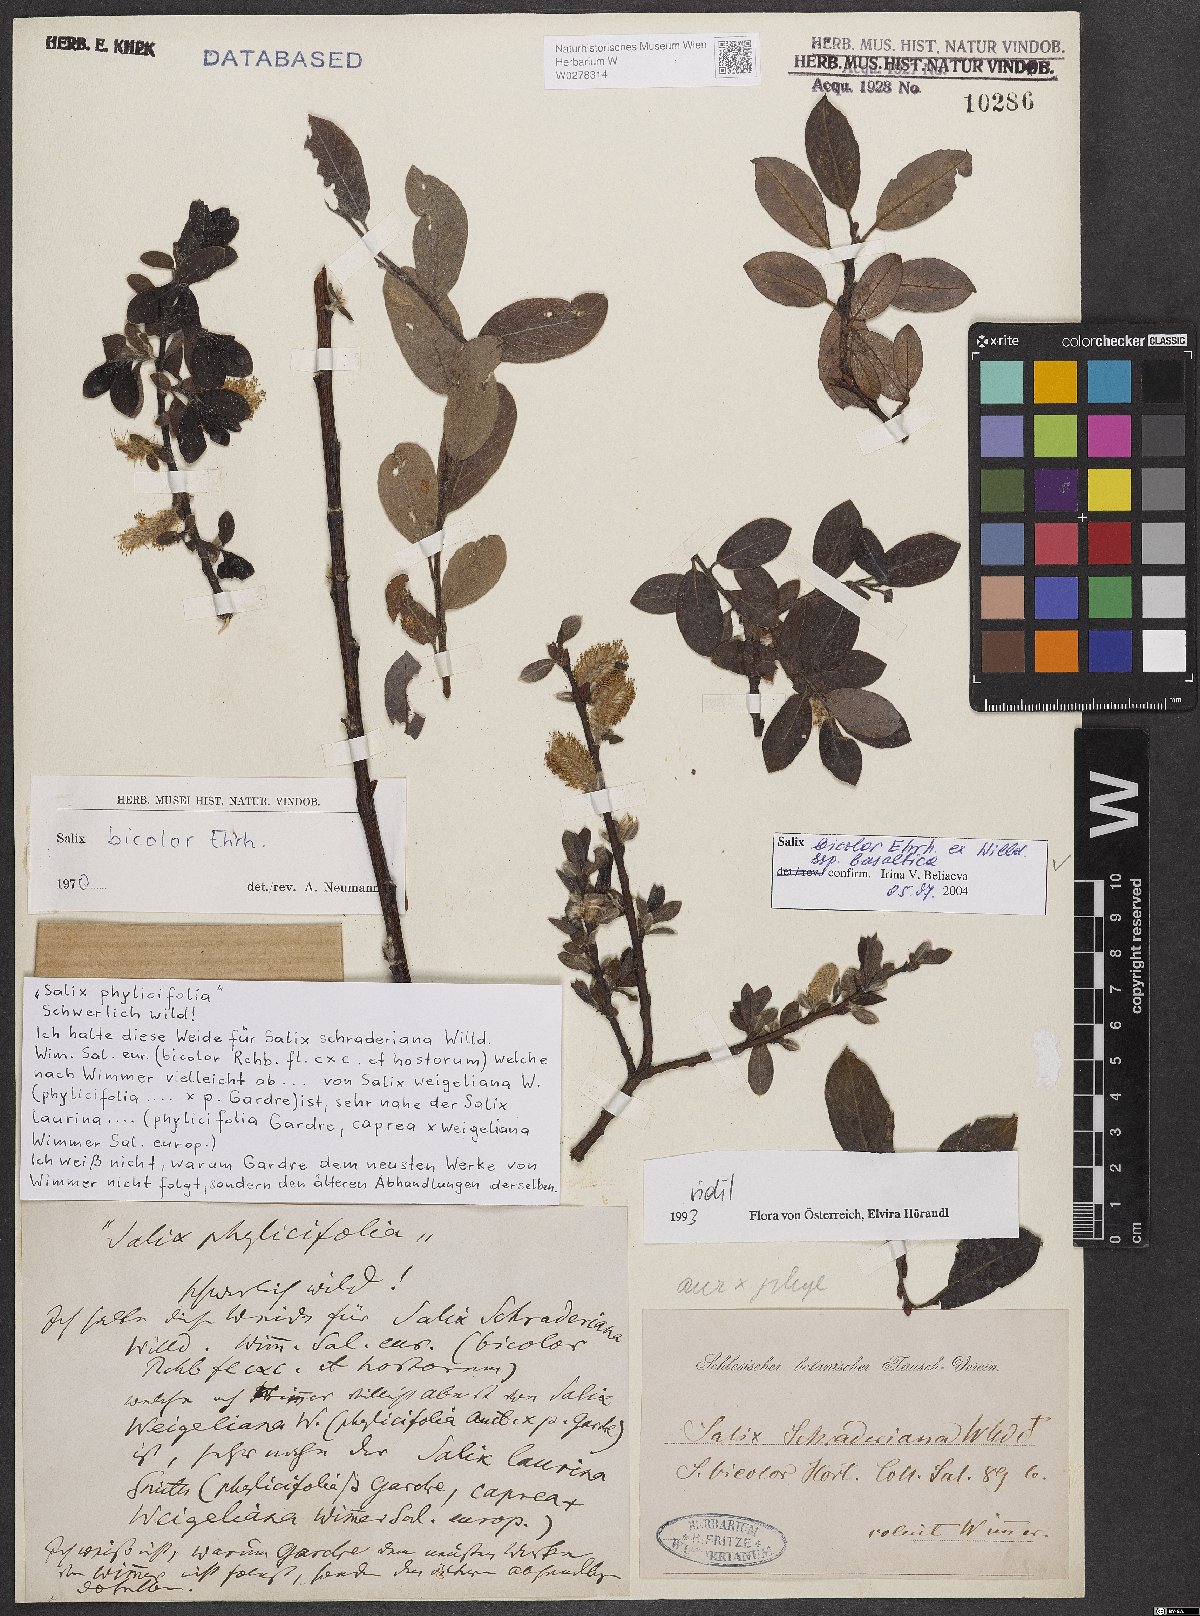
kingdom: Plantae
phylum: Tracheophyta
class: Magnoliopsida
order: Malpighiales
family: Salicaceae
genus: Salix
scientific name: Salix basaltica
